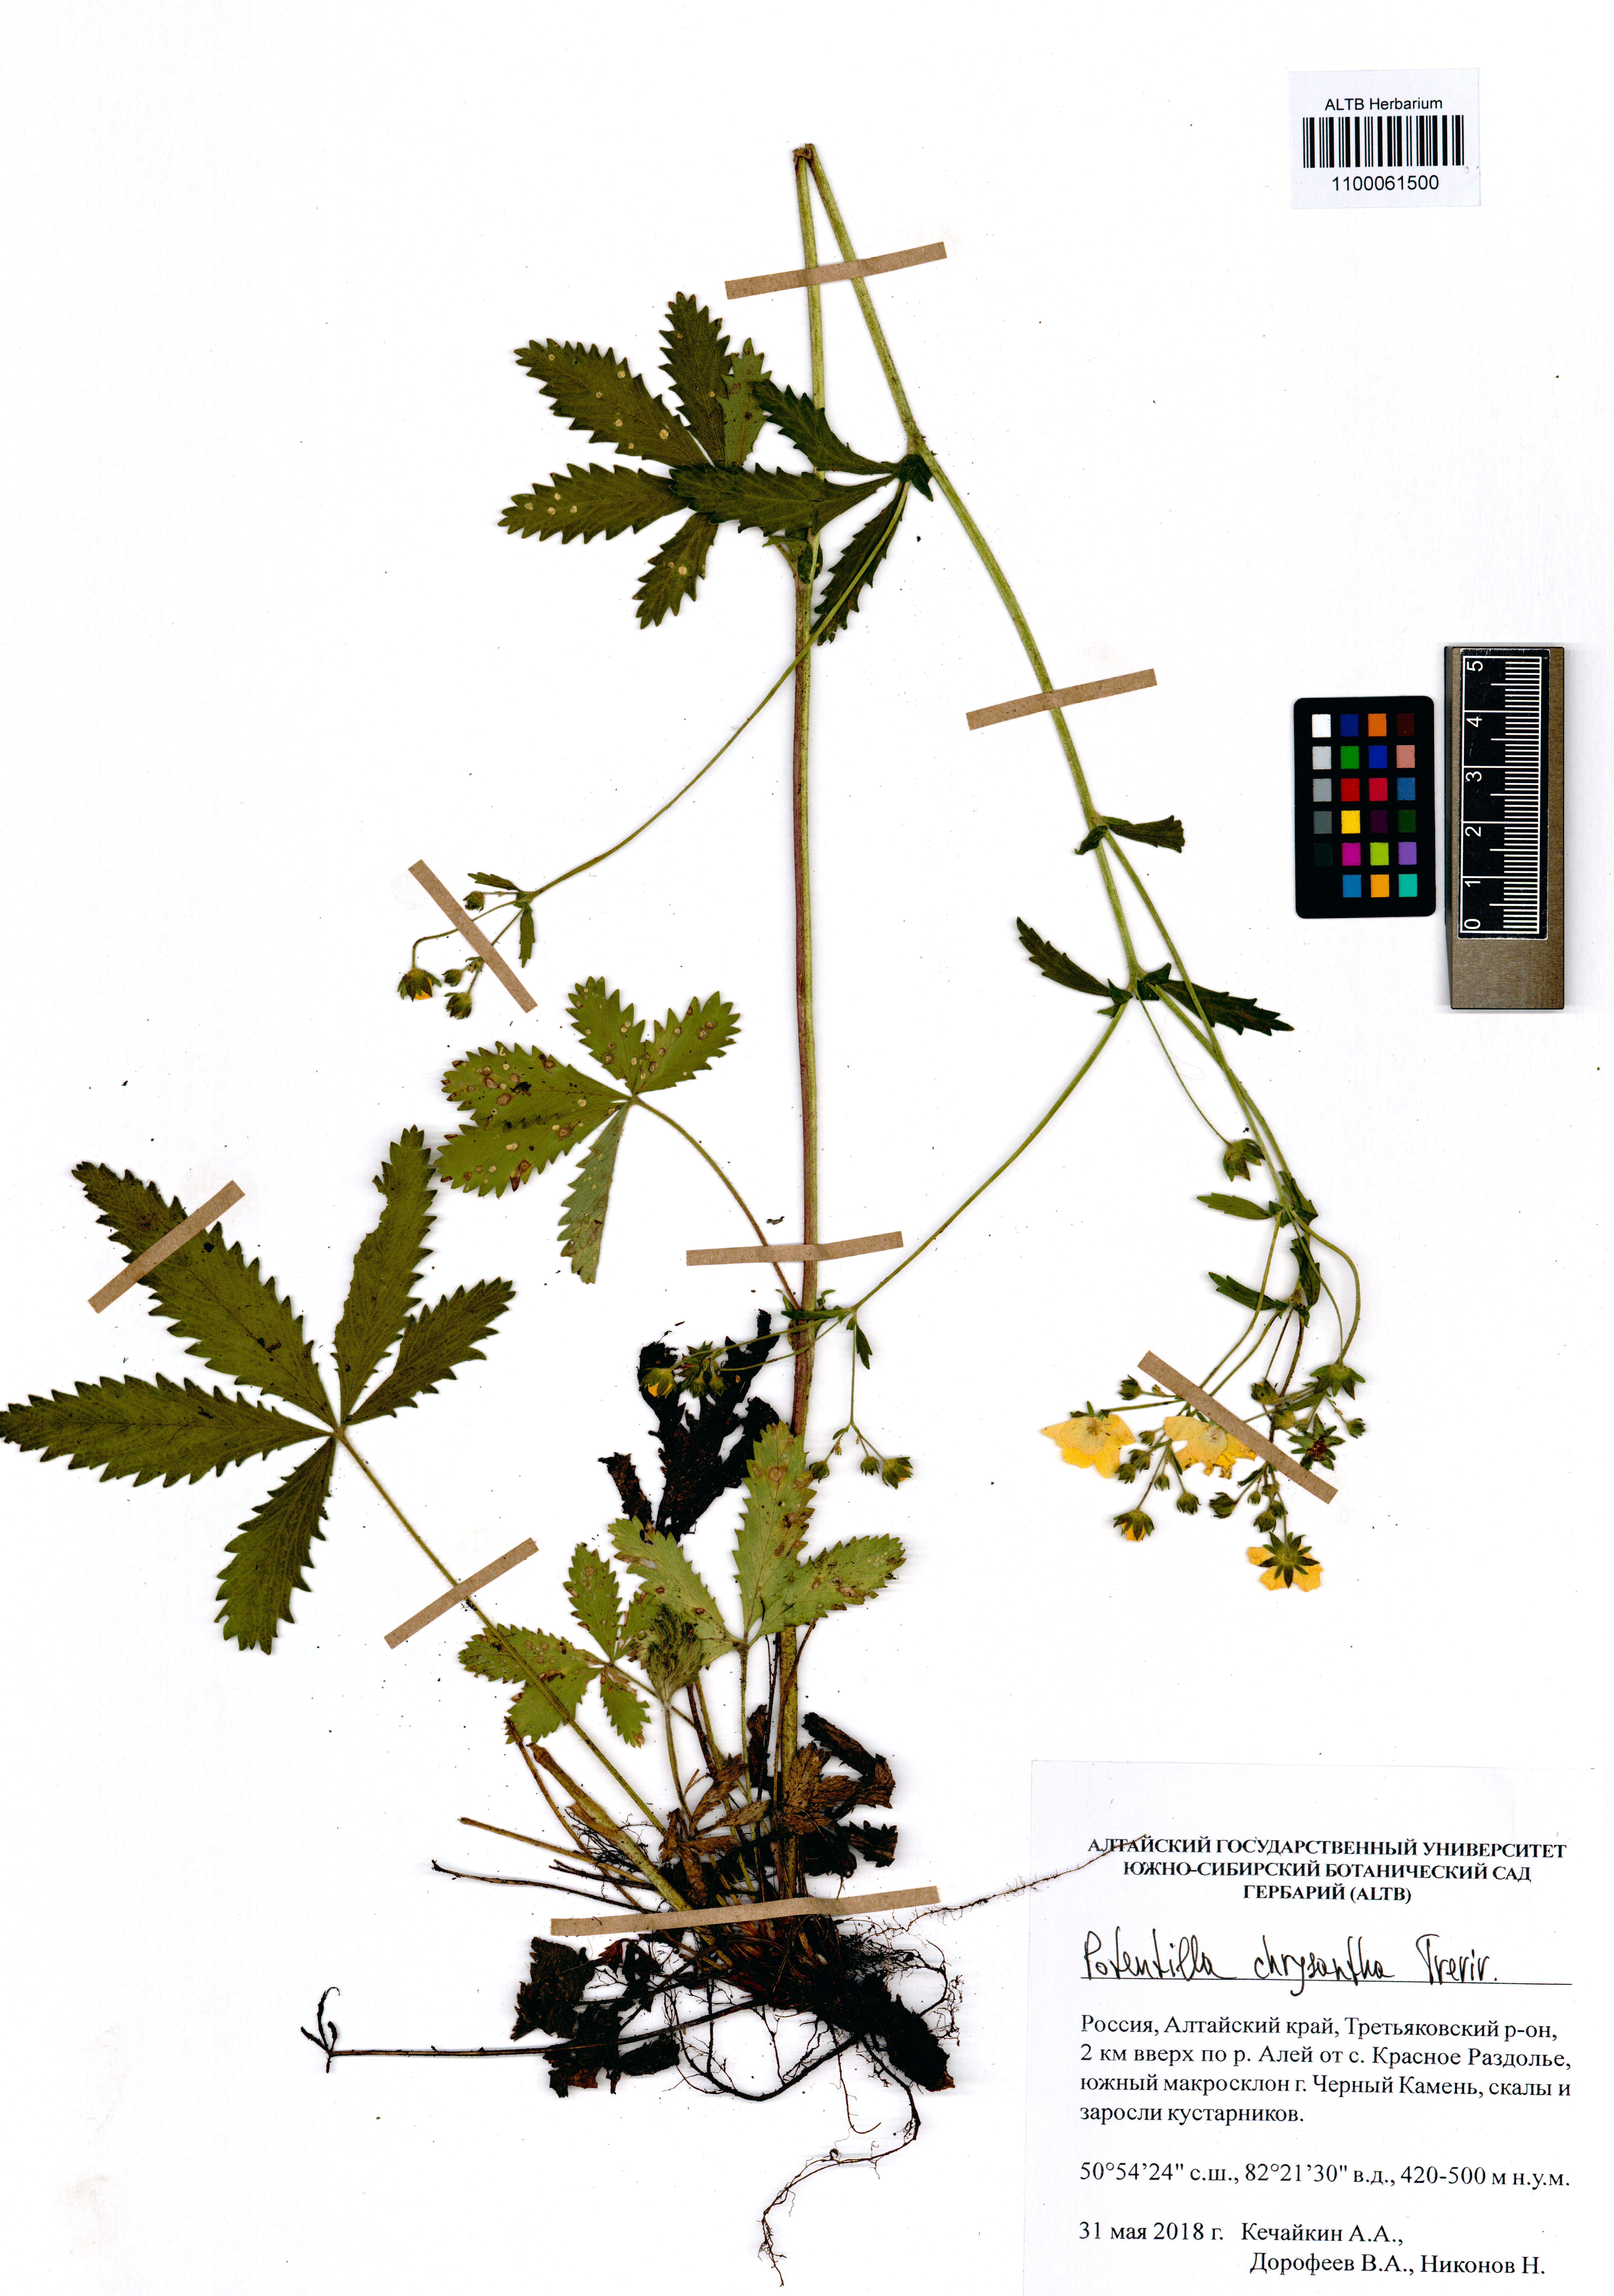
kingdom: Plantae
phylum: Tracheophyta
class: Magnoliopsida
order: Rosales
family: Rosaceae
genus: Potentilla
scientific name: Potentilla chrysantha
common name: Thuringian cinquefoil
